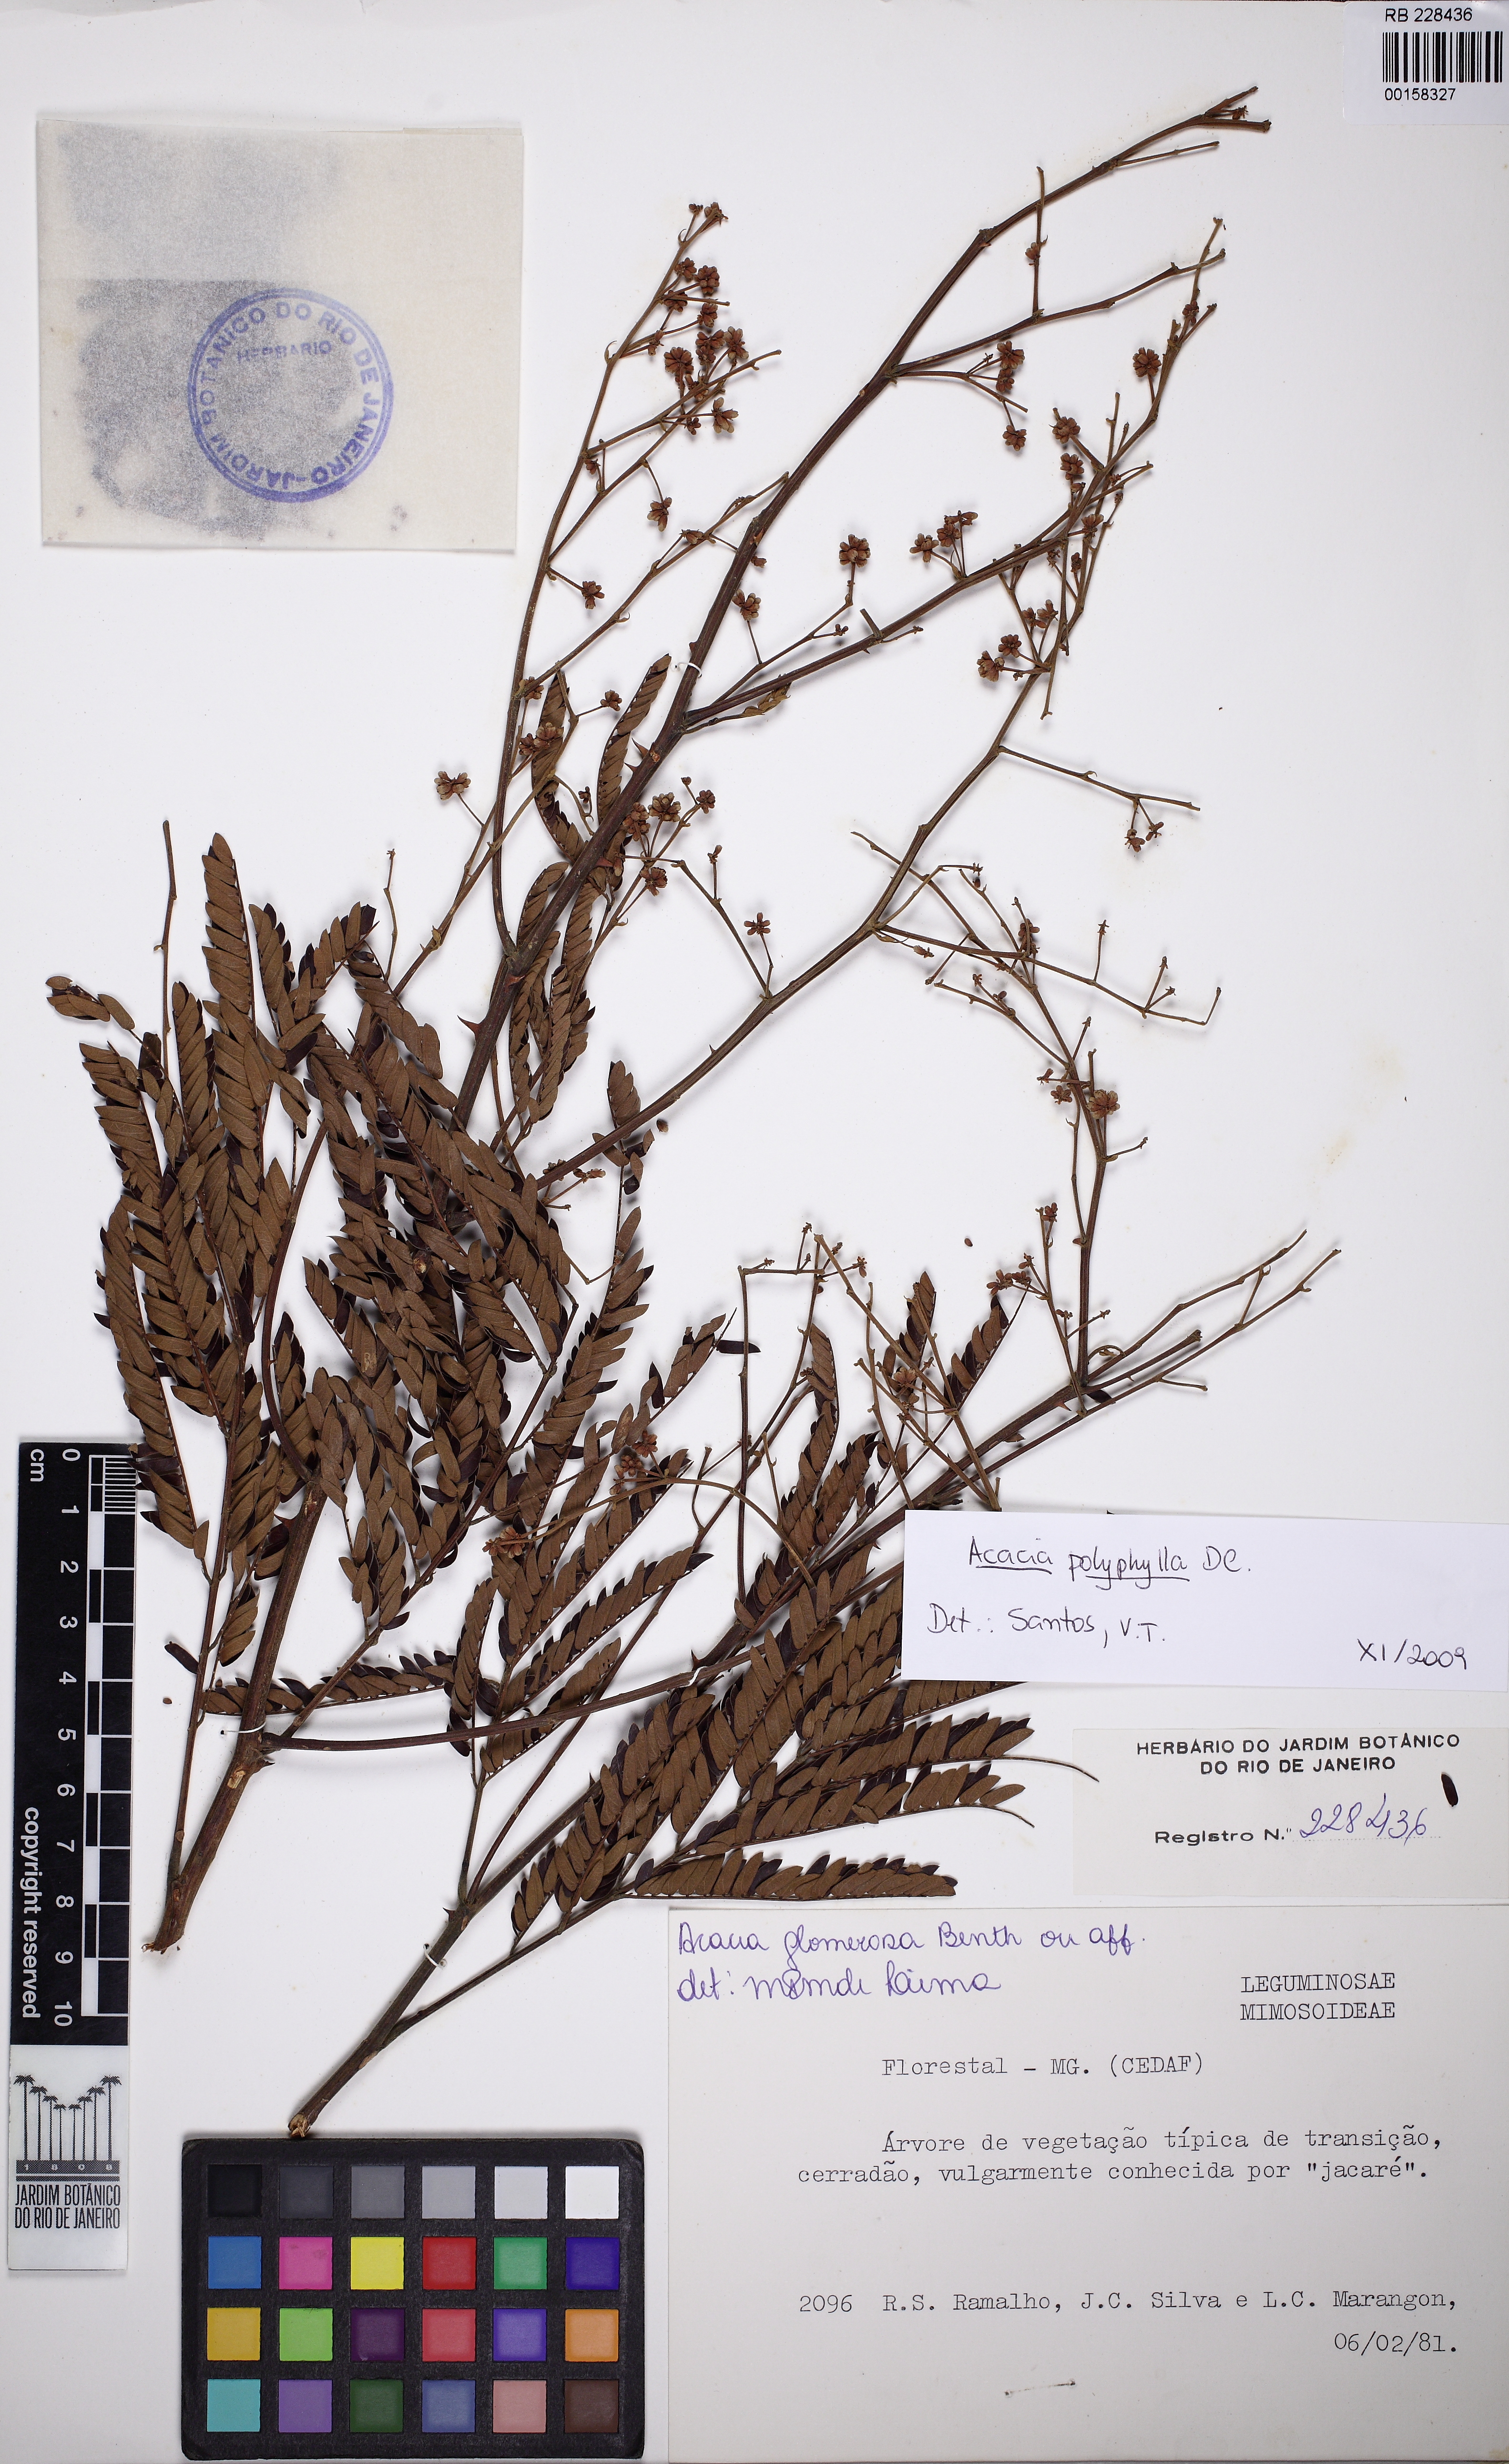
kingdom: Plantae
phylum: Tracheophyta
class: Magnoliopsida
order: Fabales
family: Fabaceae
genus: Senegalia
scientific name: Senegalia polyphylla
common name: White-tamarind
